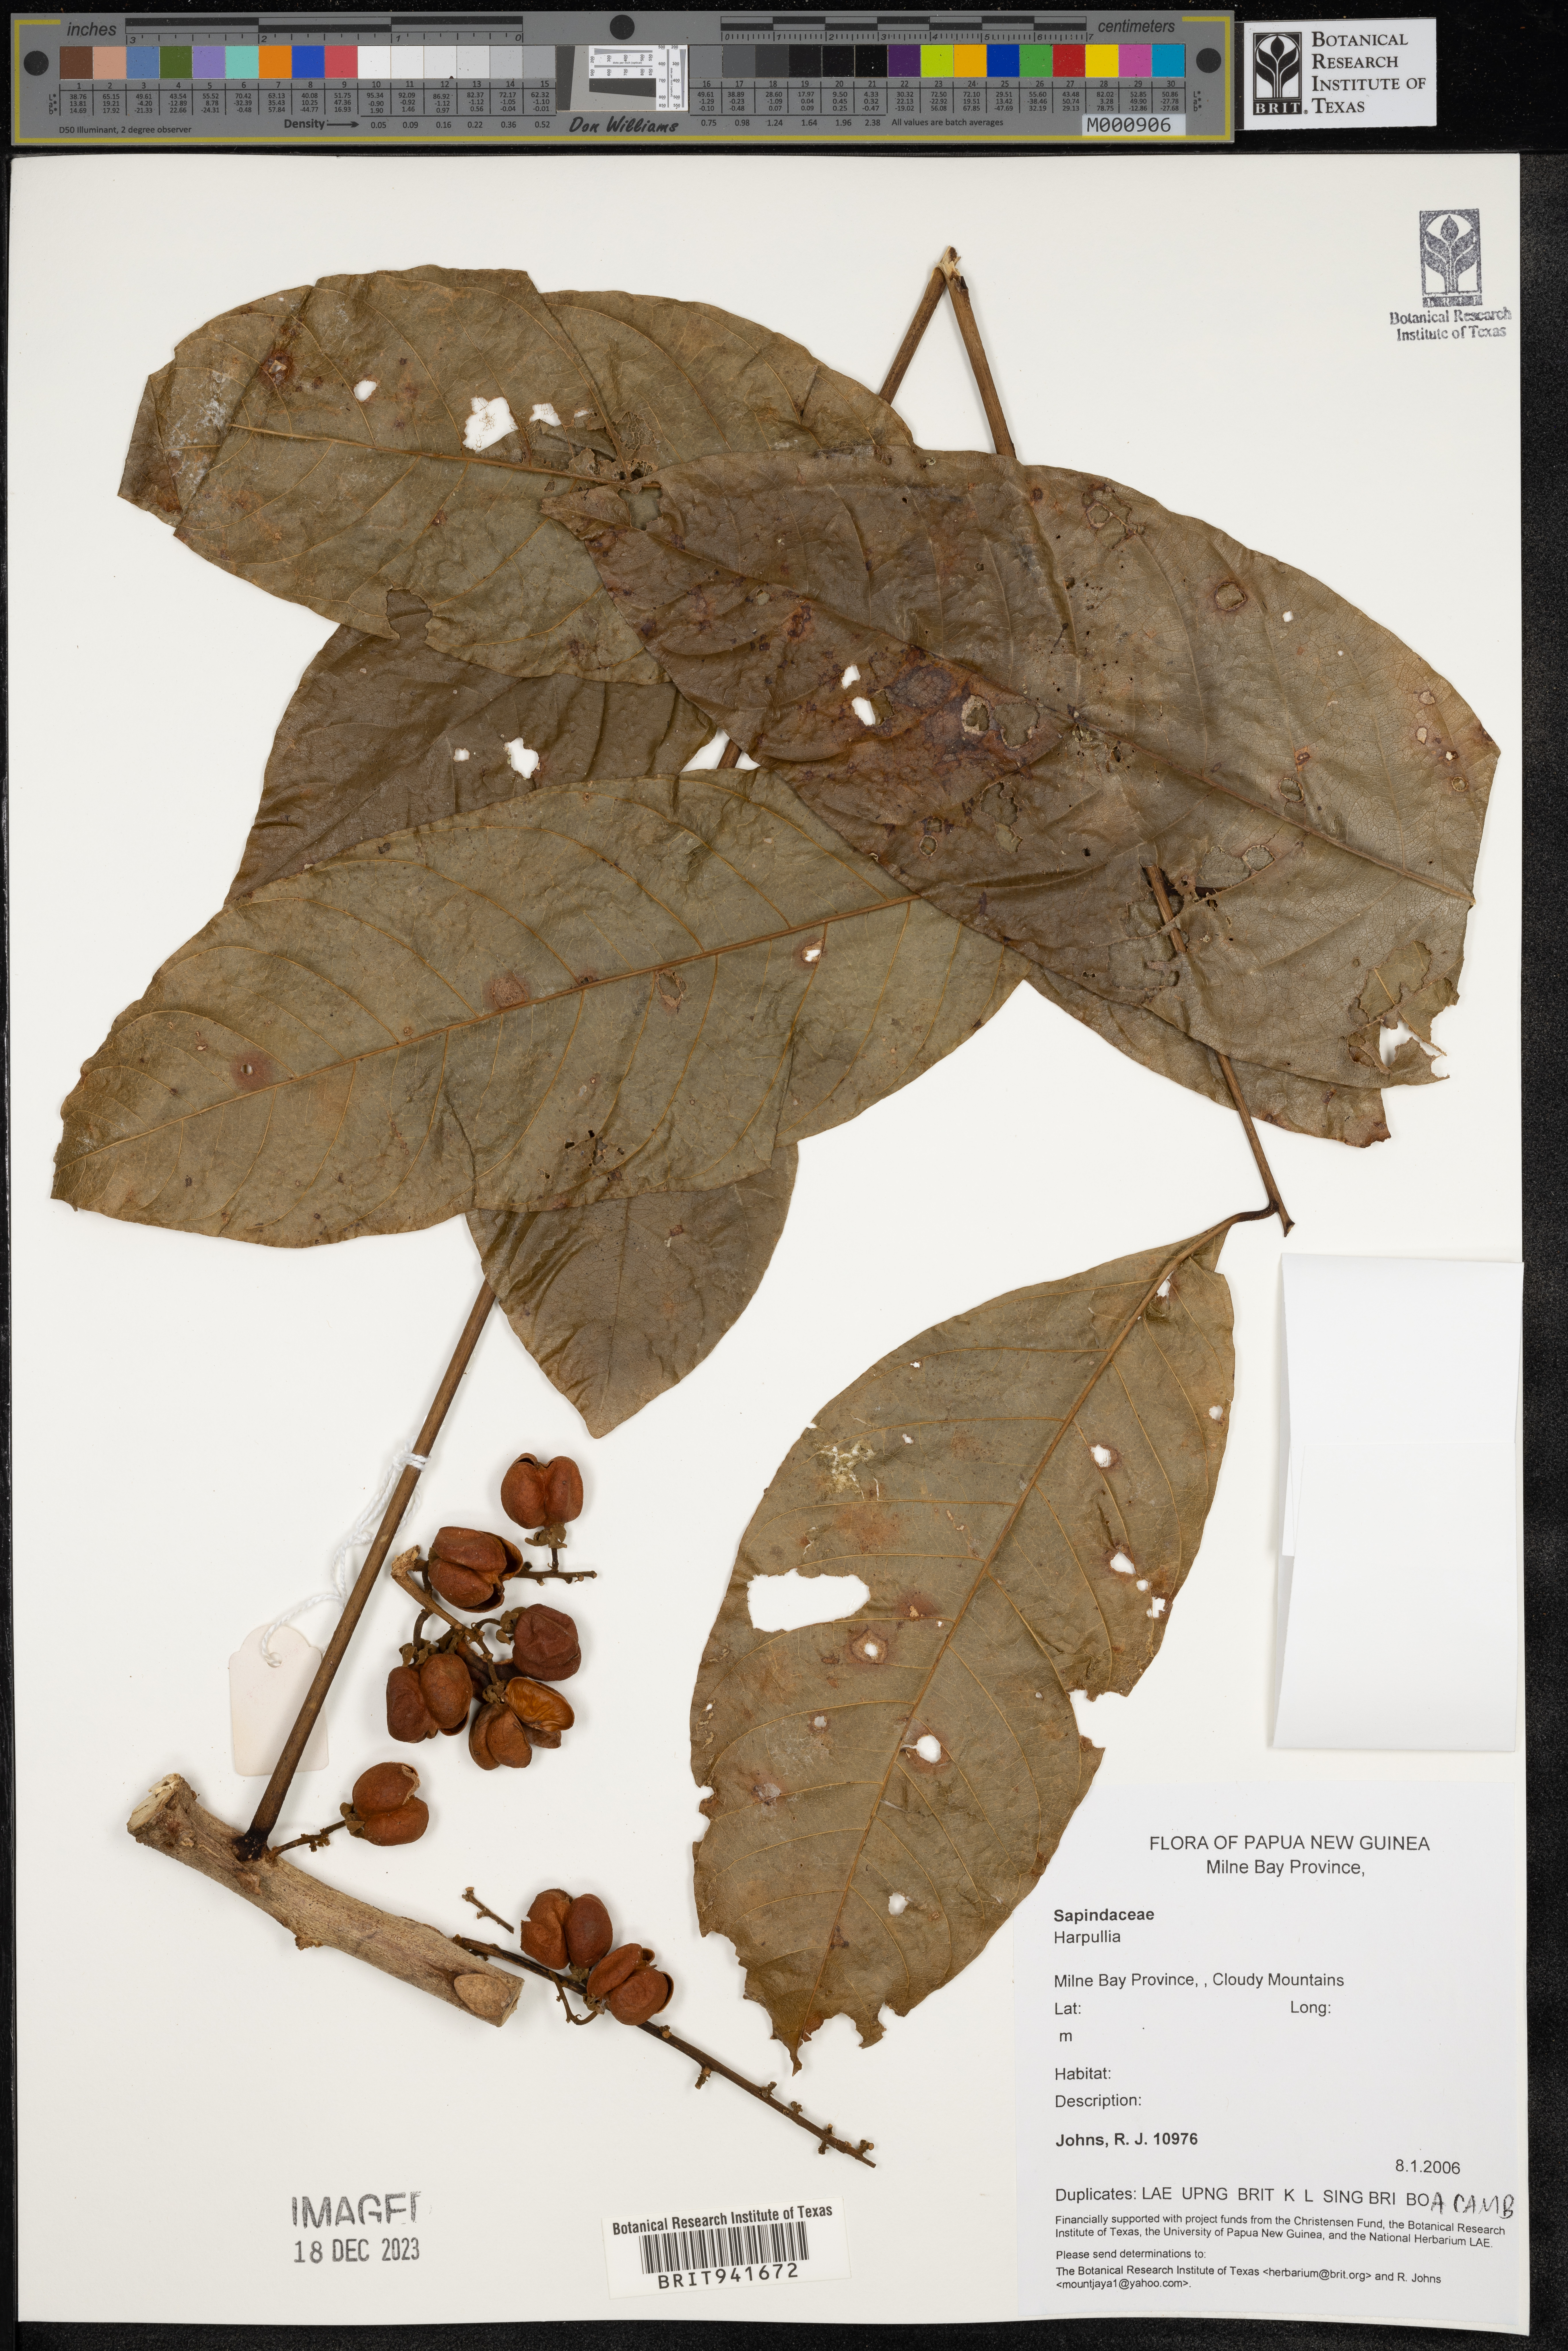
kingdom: Plantae
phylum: Tracheophyta
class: Magnoliopsida
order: Sapindales
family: Sapindaceae
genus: Harpullia
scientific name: Harpullia
